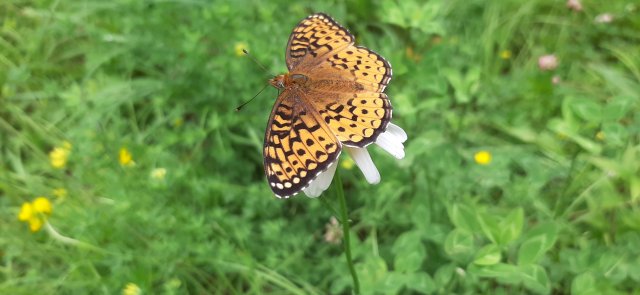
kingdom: Animalia
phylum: Arthropoda
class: Insecta
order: Lepidoptera
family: Nymphalidae
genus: Speyeria
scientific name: Speyeria atlantis
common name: Atlantis Fritillary
